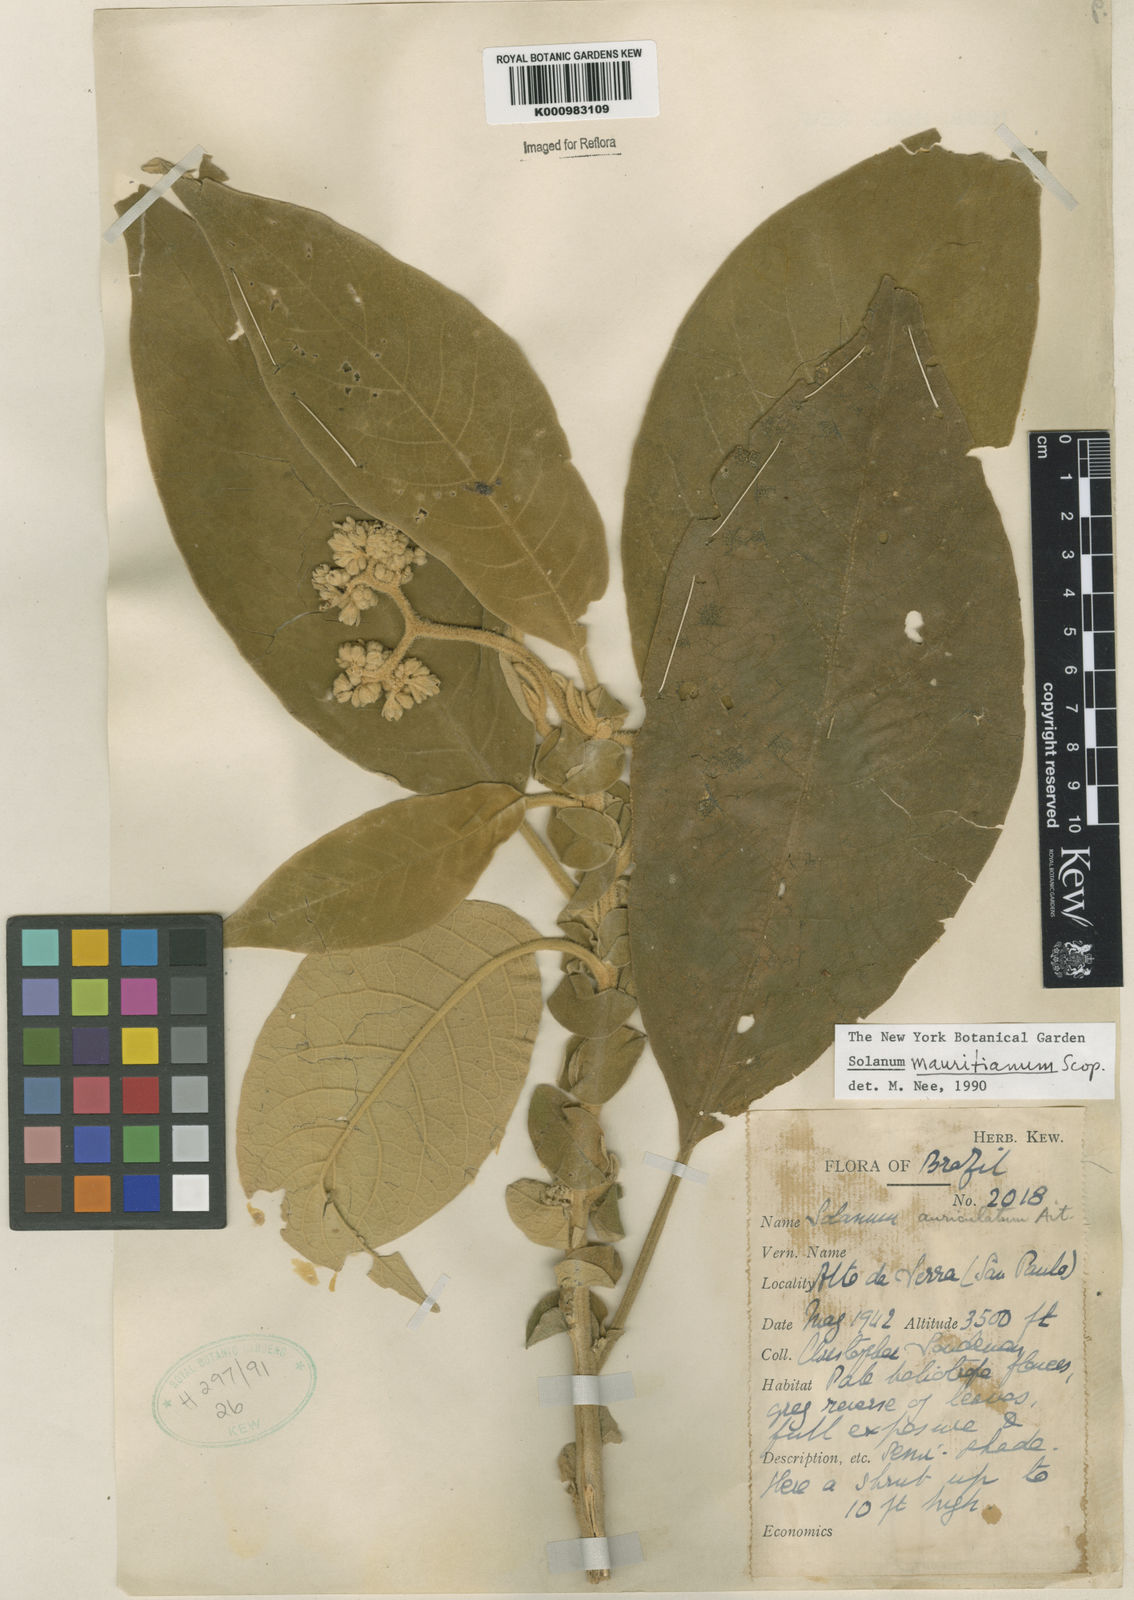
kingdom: Plantae
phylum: Tracheophyta
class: Magnoliopsida
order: Solanales
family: Solanaceae
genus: Solanum
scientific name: Solanum mauritianum
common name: Earleaf nightshade
